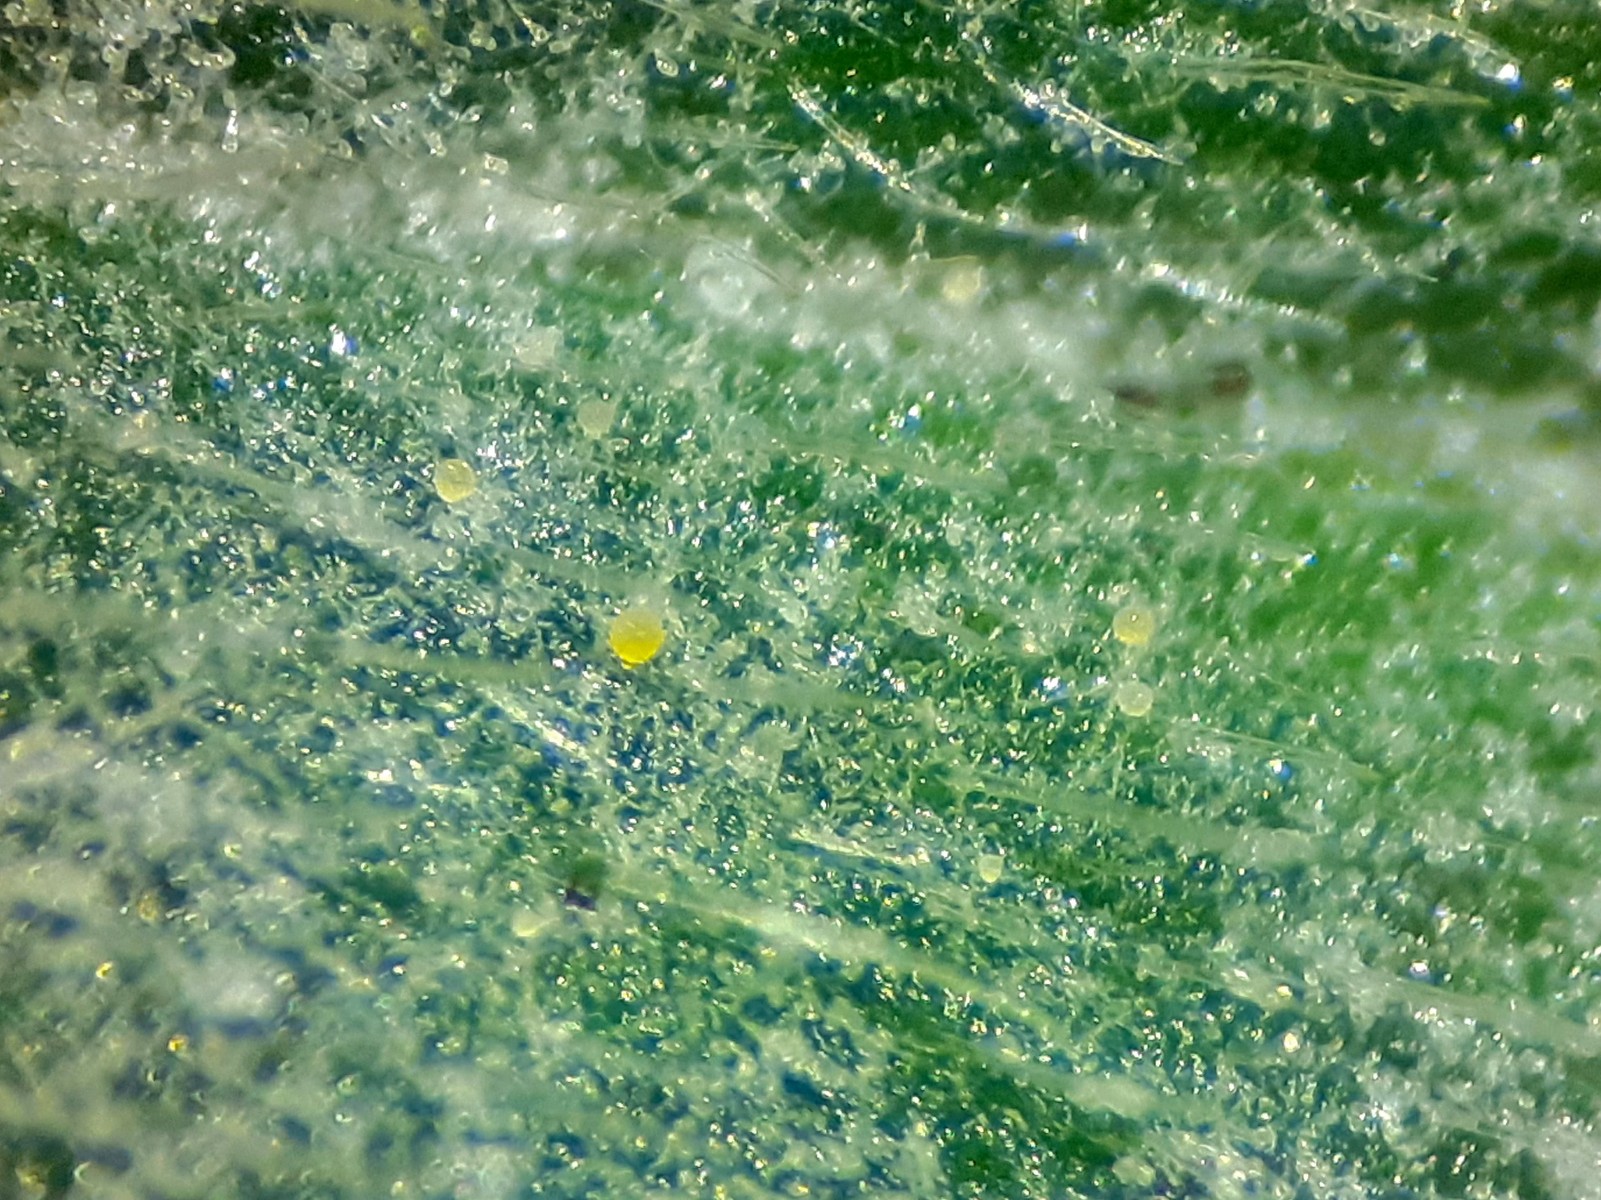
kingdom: Fungi
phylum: Ascomycota
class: Leotiomycetes
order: Helotiales
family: Erysiphaceae
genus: Erysiphe
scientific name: Erysiphe aquilegiae
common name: ranunkel-meldug
